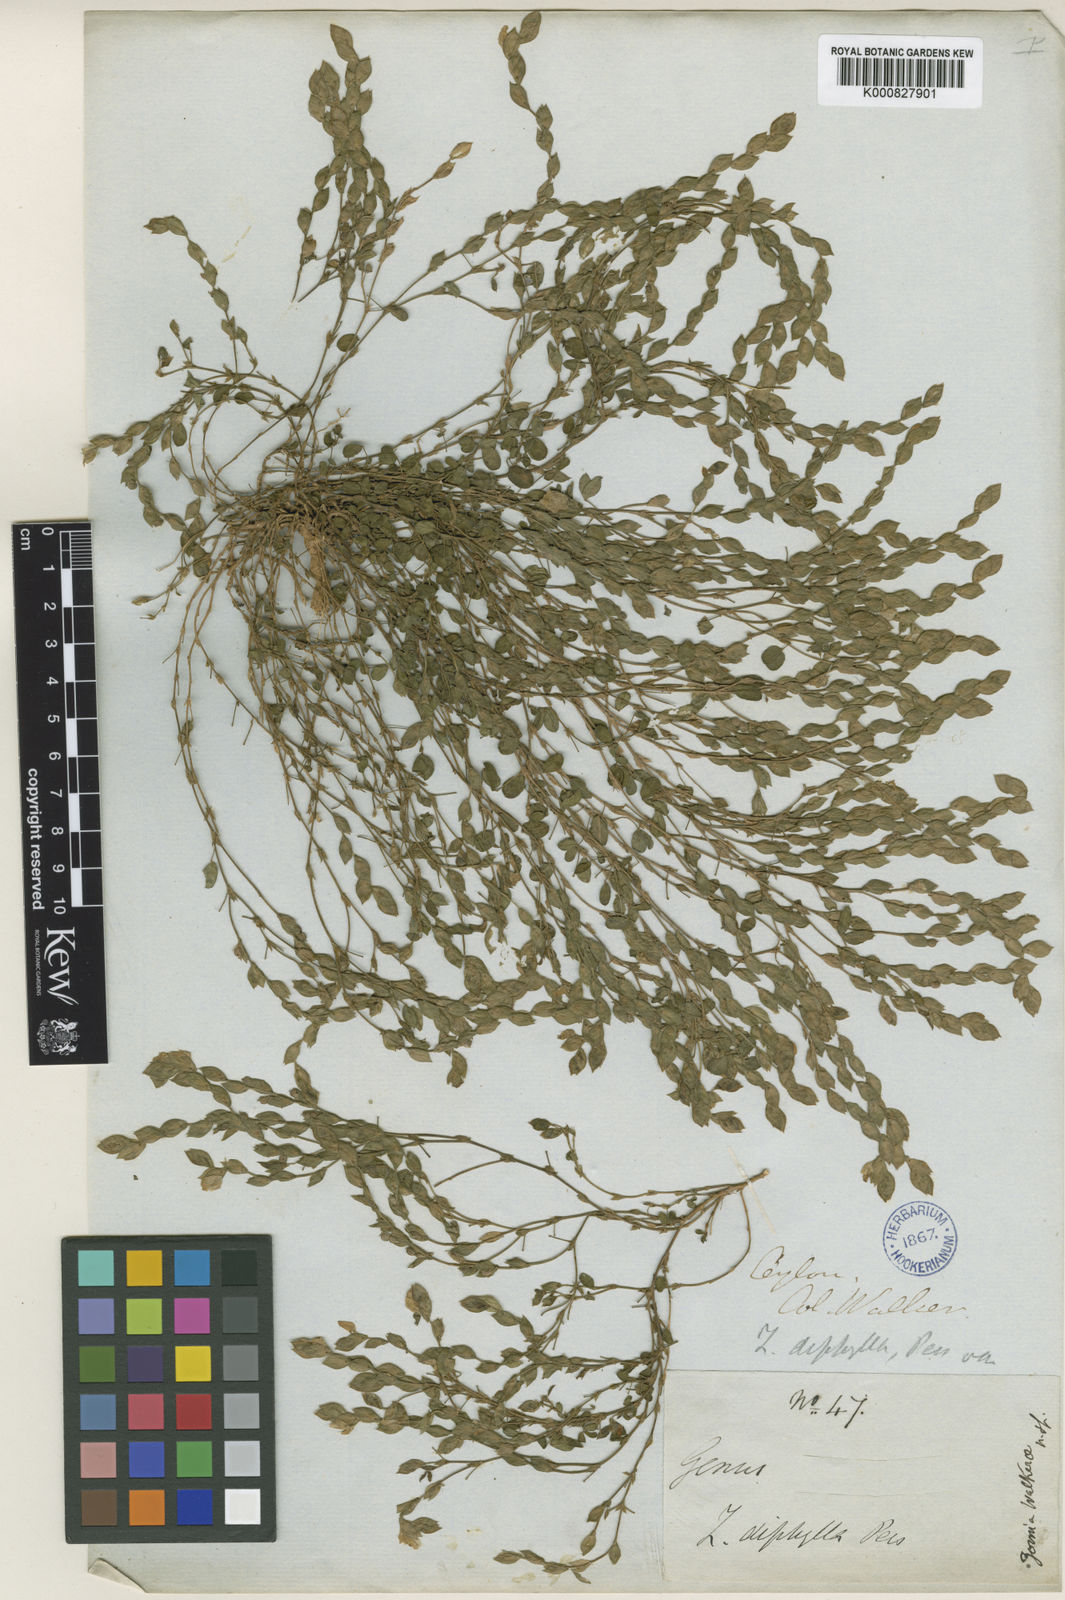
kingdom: Plantae
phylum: Tracheophyta
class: Magnoliopsida
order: Fabales
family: Fabaceae
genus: Zornia
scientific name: Zornia walkeri
